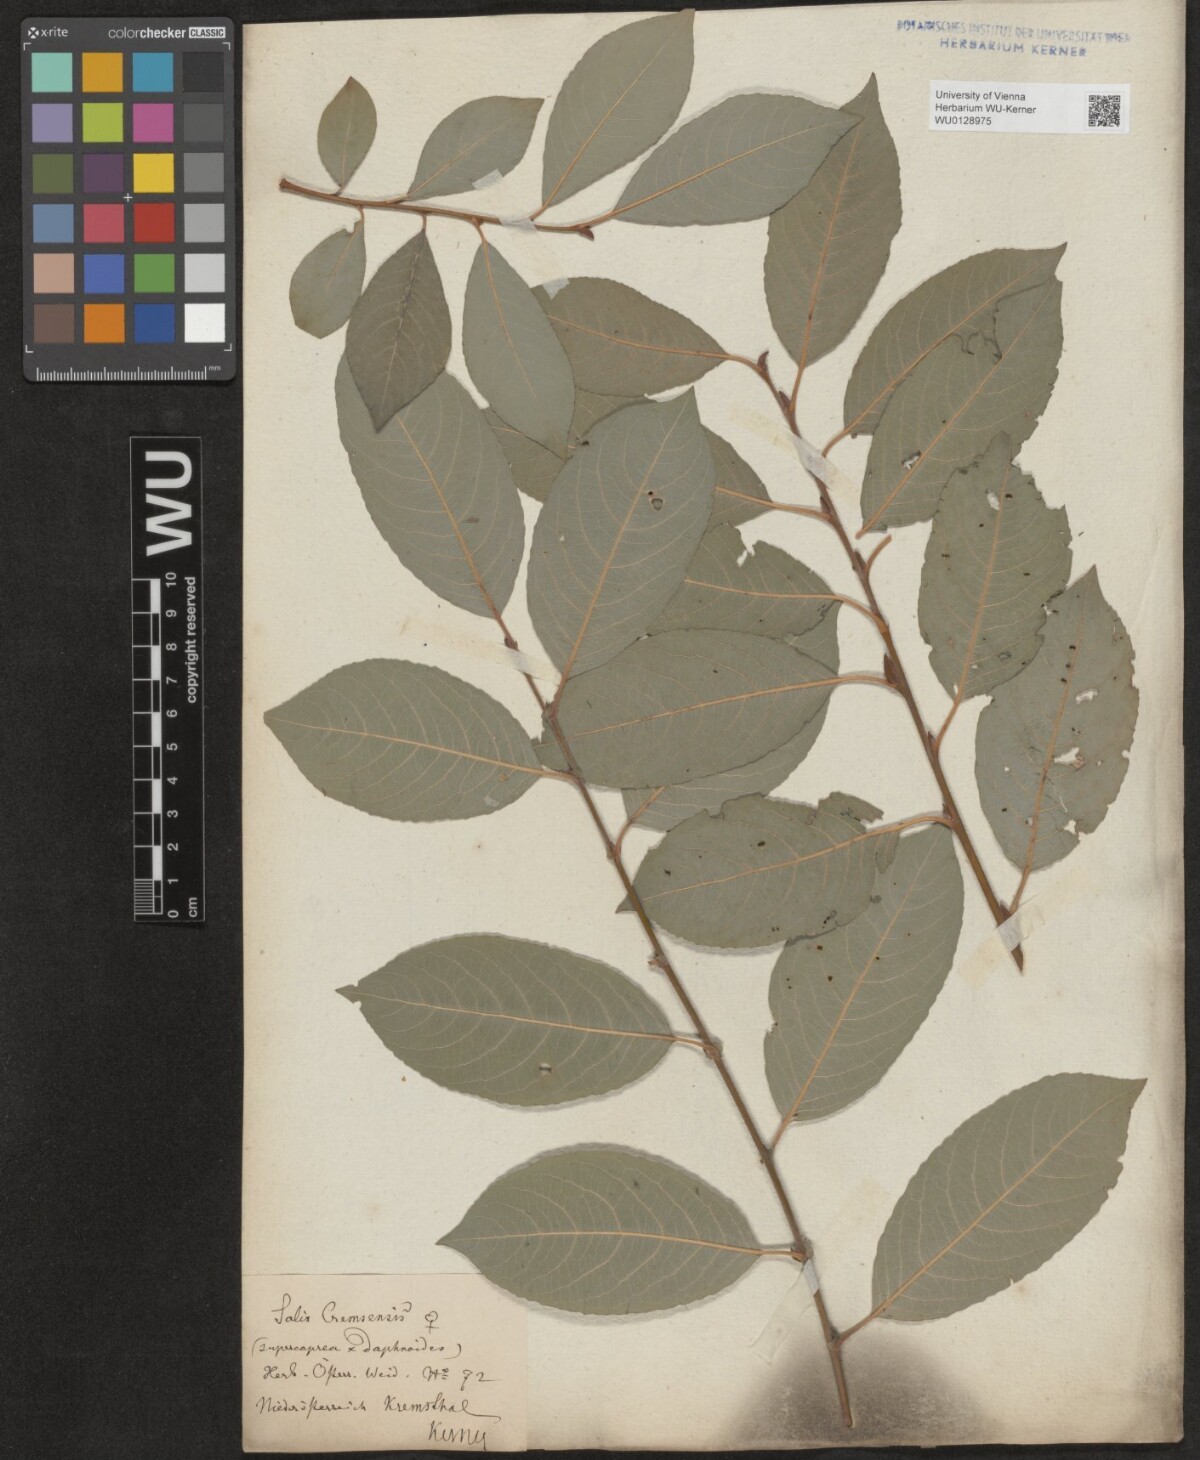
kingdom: Plantae
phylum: Tracheophyta
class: Magnoliopsida
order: Malpighiales
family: Salicaceae
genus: Salix
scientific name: Salix erdingeri
